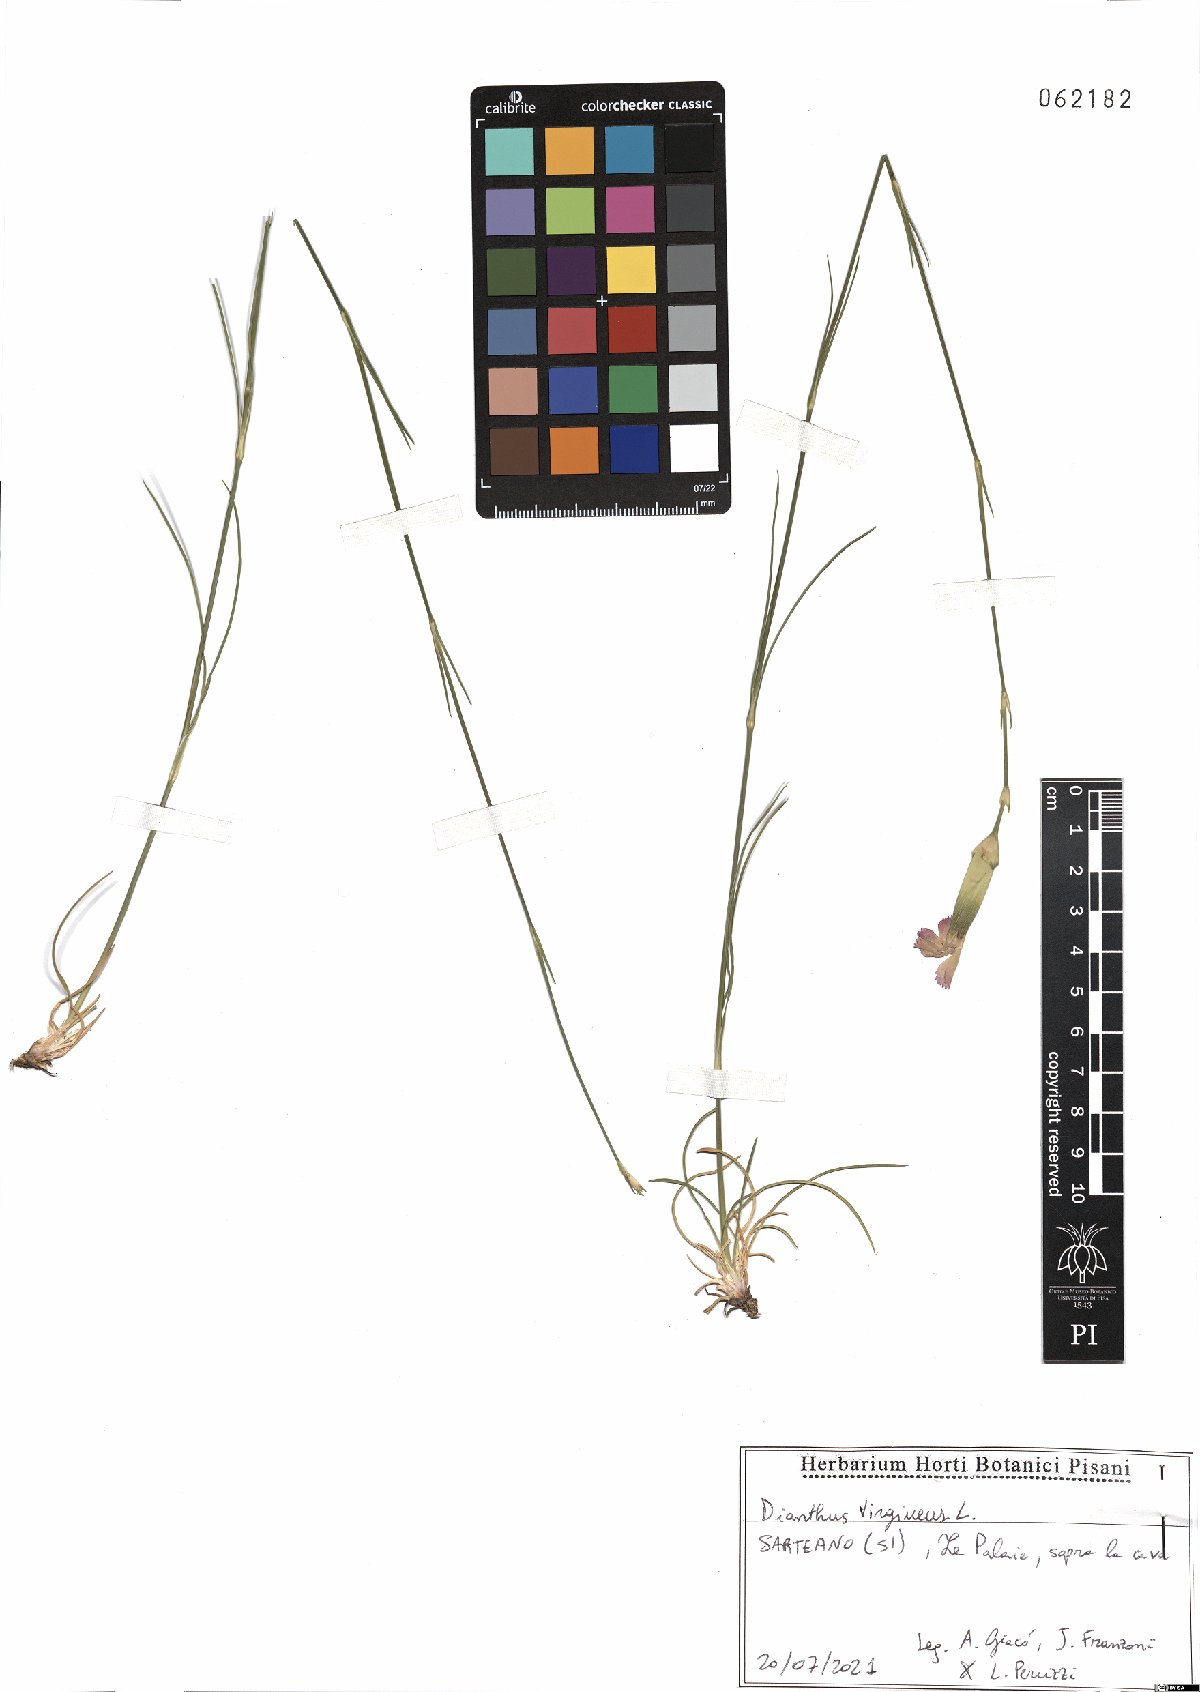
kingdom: Plantae
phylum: Tracheophyta
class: Magnoliopsida
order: Caryophyllales
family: Caryophyllaceae
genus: Dianthus
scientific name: Dianthus virgineus
